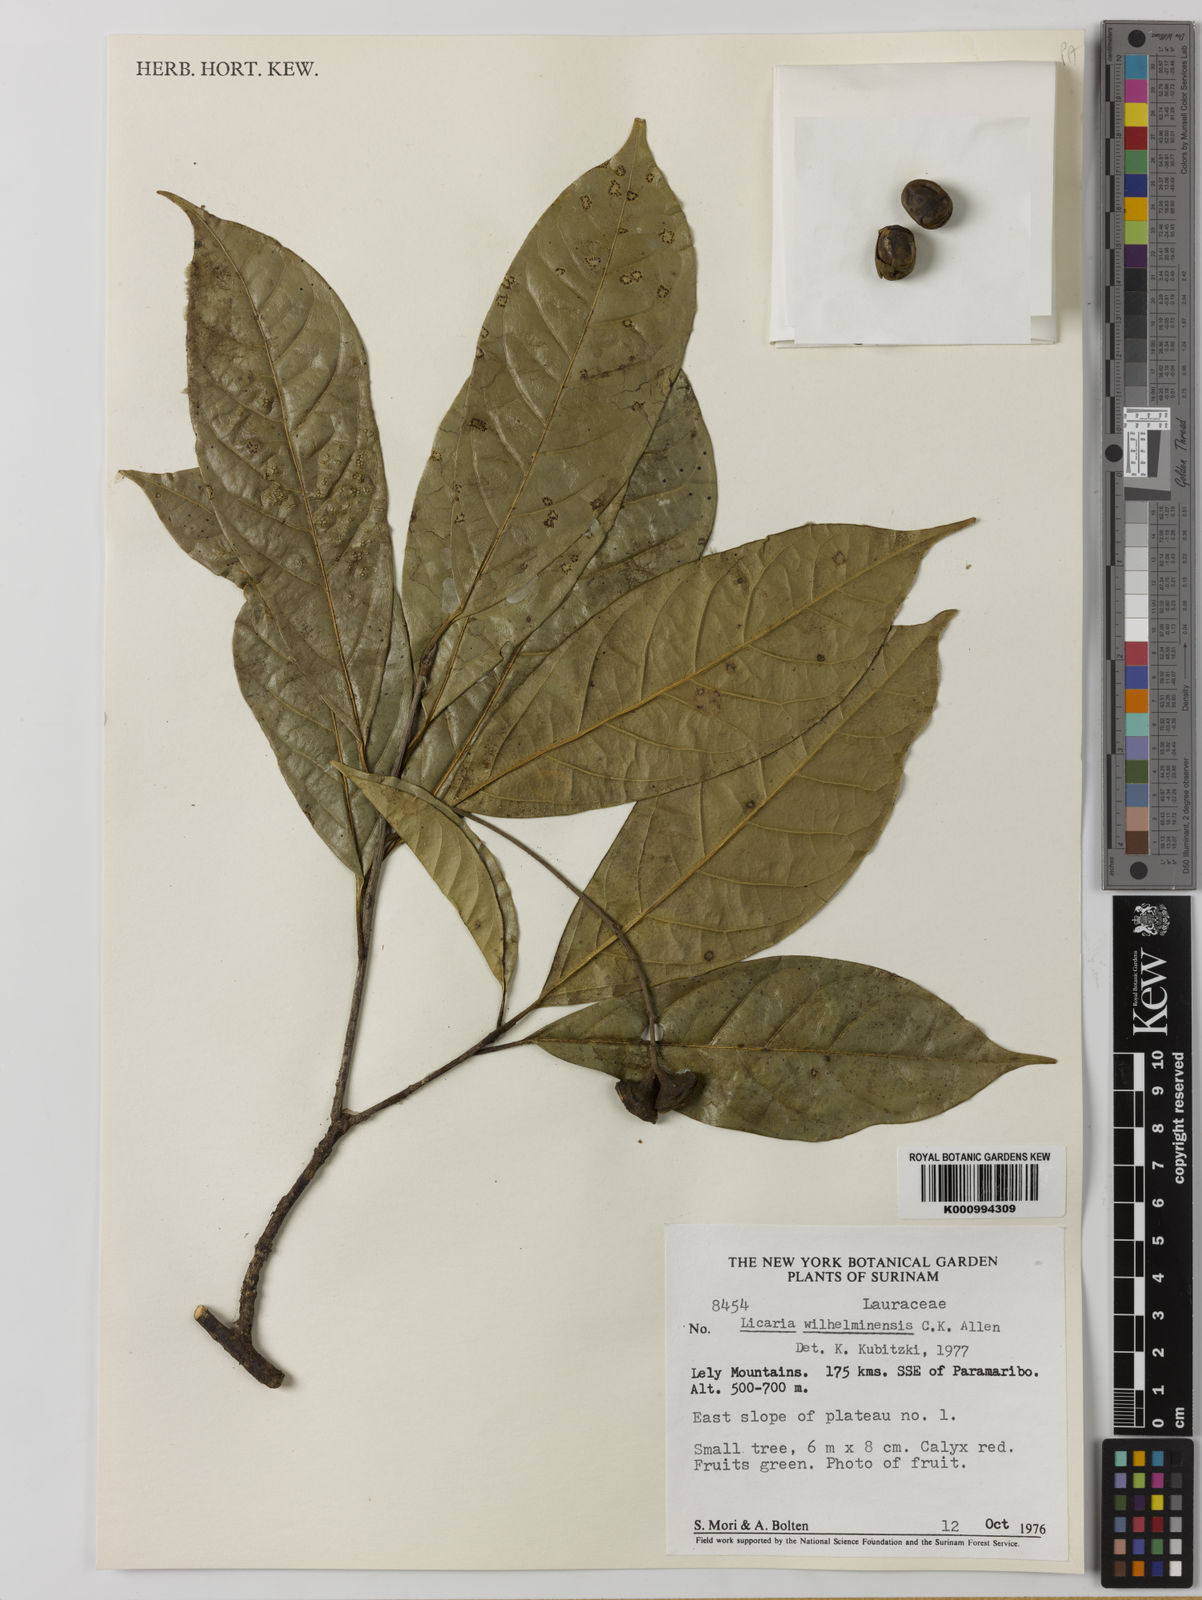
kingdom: Plantae
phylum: Tracheophyta
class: Magnoliopsida
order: Laurales
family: Lauraceae
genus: Licaria
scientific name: Licaria subbullata
